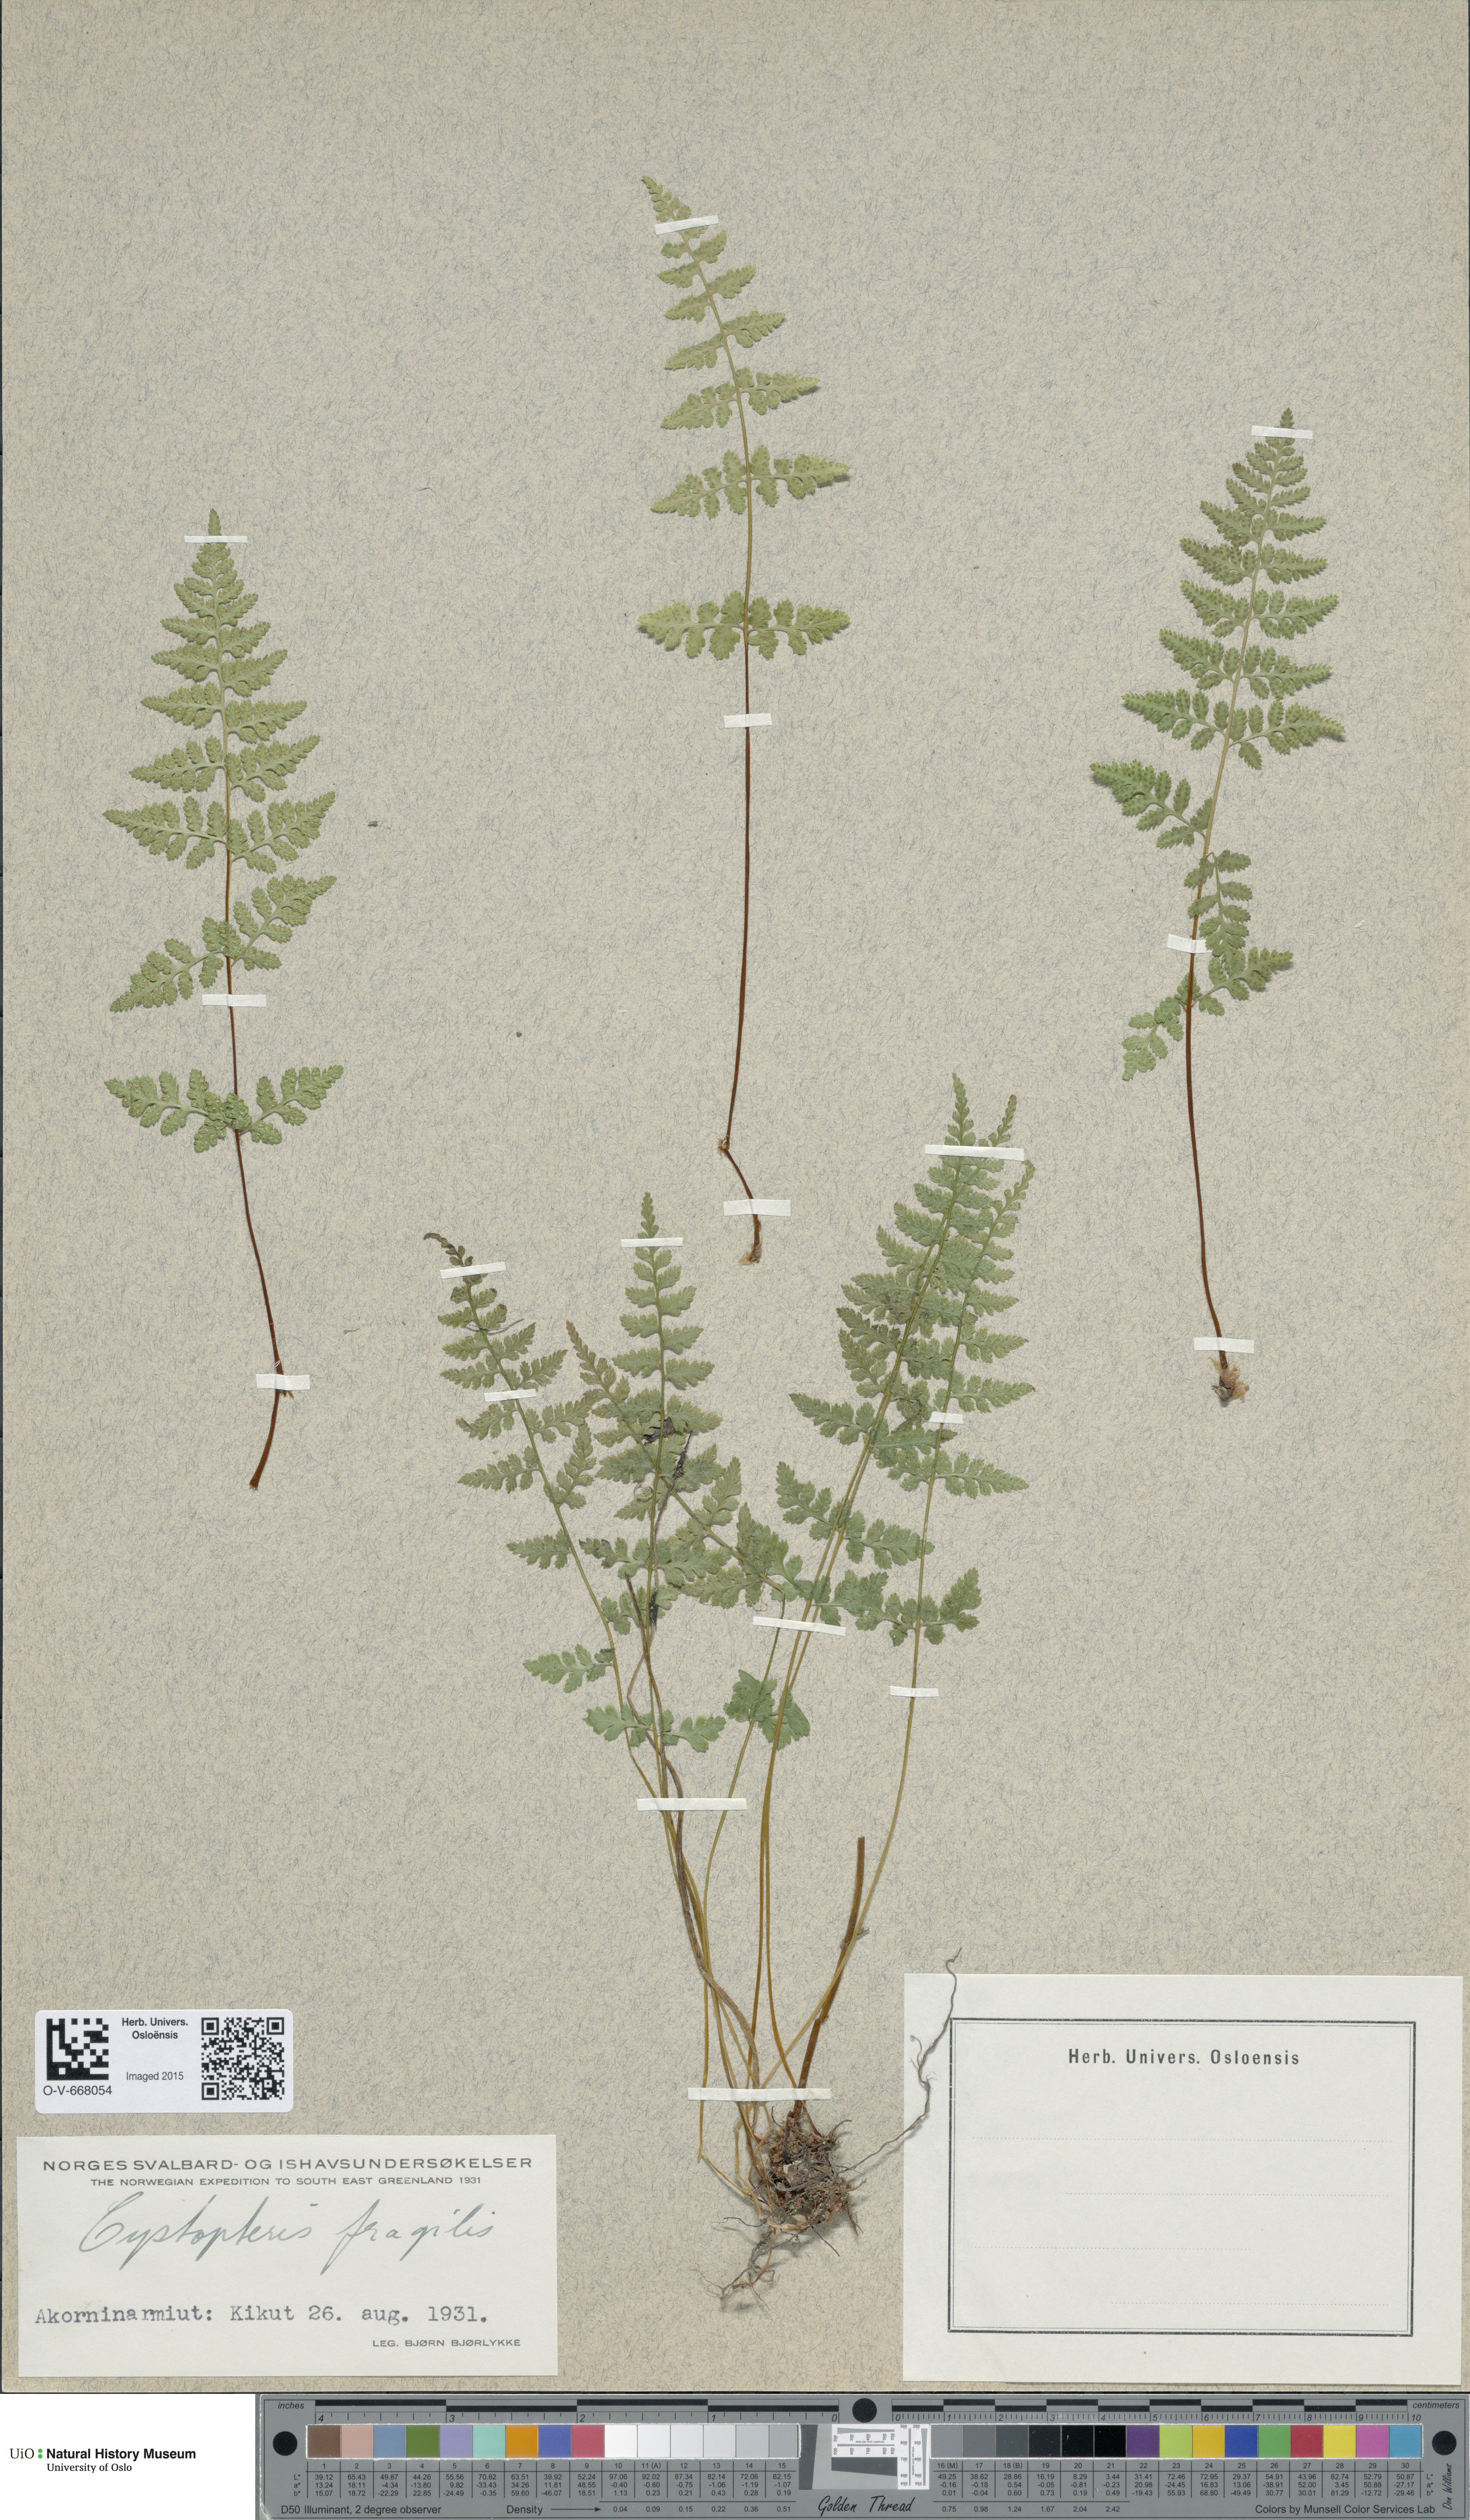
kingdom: Plantae
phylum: Tracheophyta
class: Polypodiopsida
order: Polypodiales
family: Cystopteridaceae
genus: Cystopteris
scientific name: Cystopteris fragilis
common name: Brittle bladder fern
